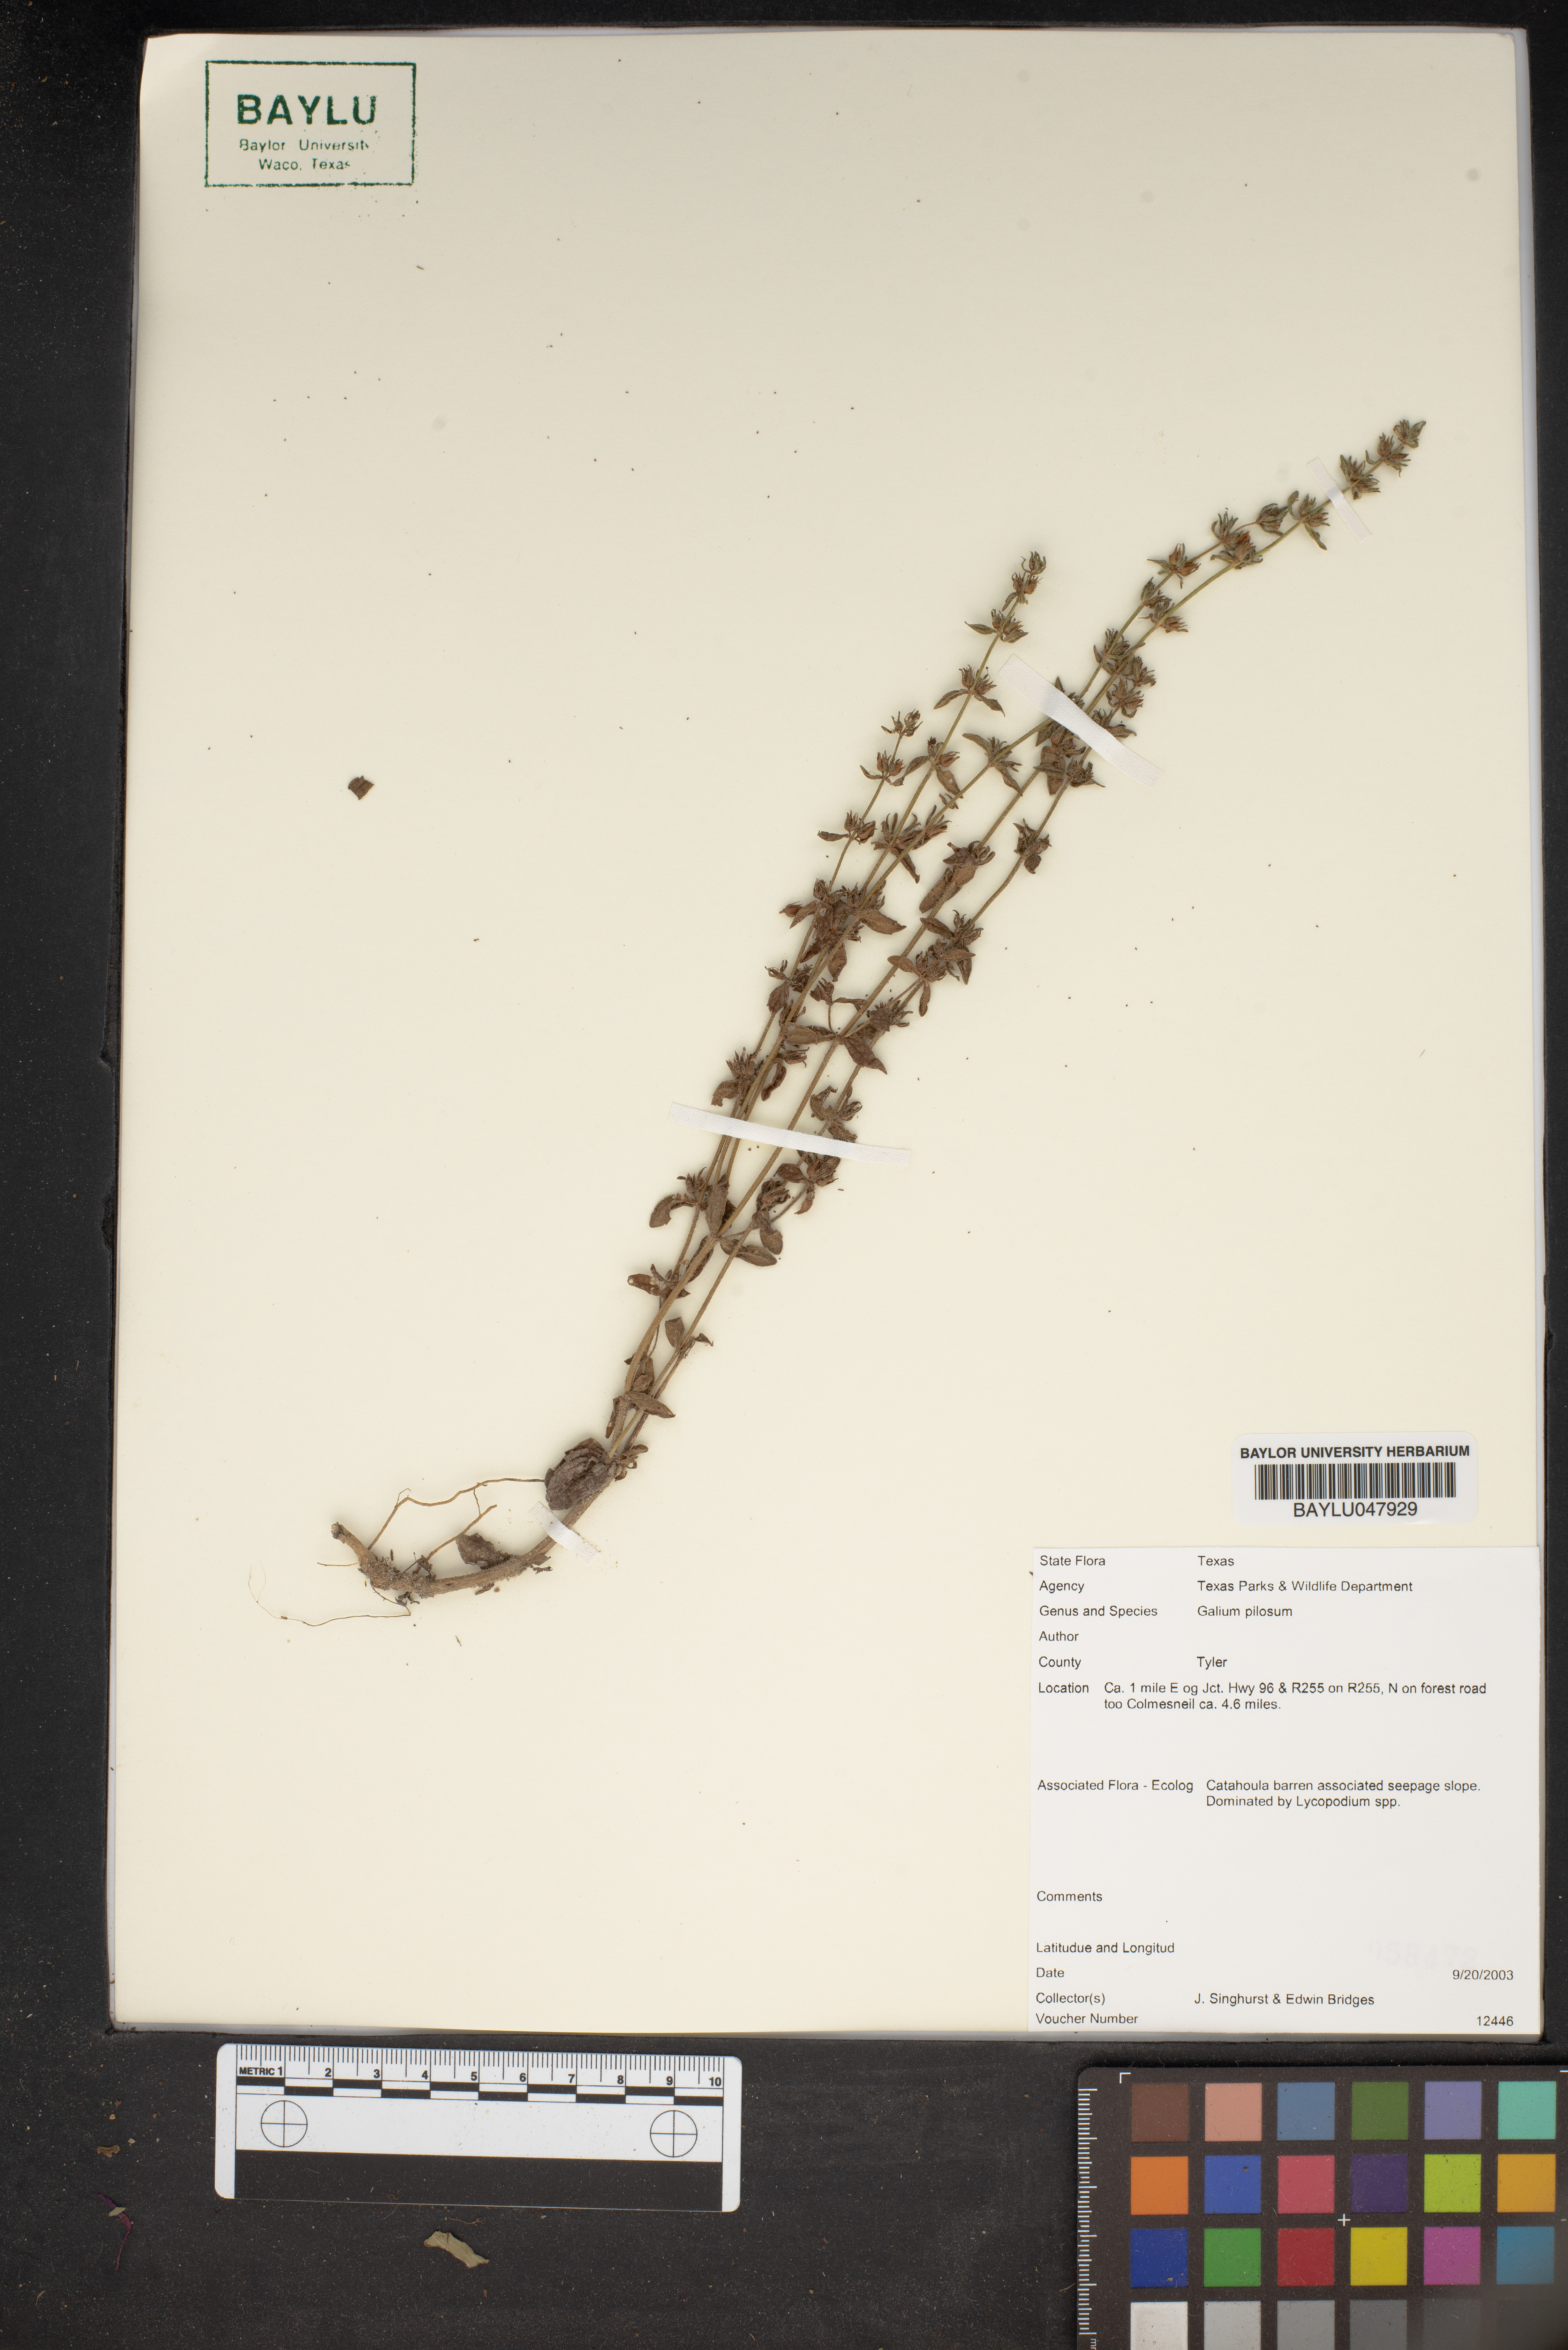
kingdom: Plantae
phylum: Tracheophyta
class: Magnoliopsida
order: Gentianales
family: Rubiaceae
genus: Galium
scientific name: Galium pilosum
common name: Hairy bedstraw
